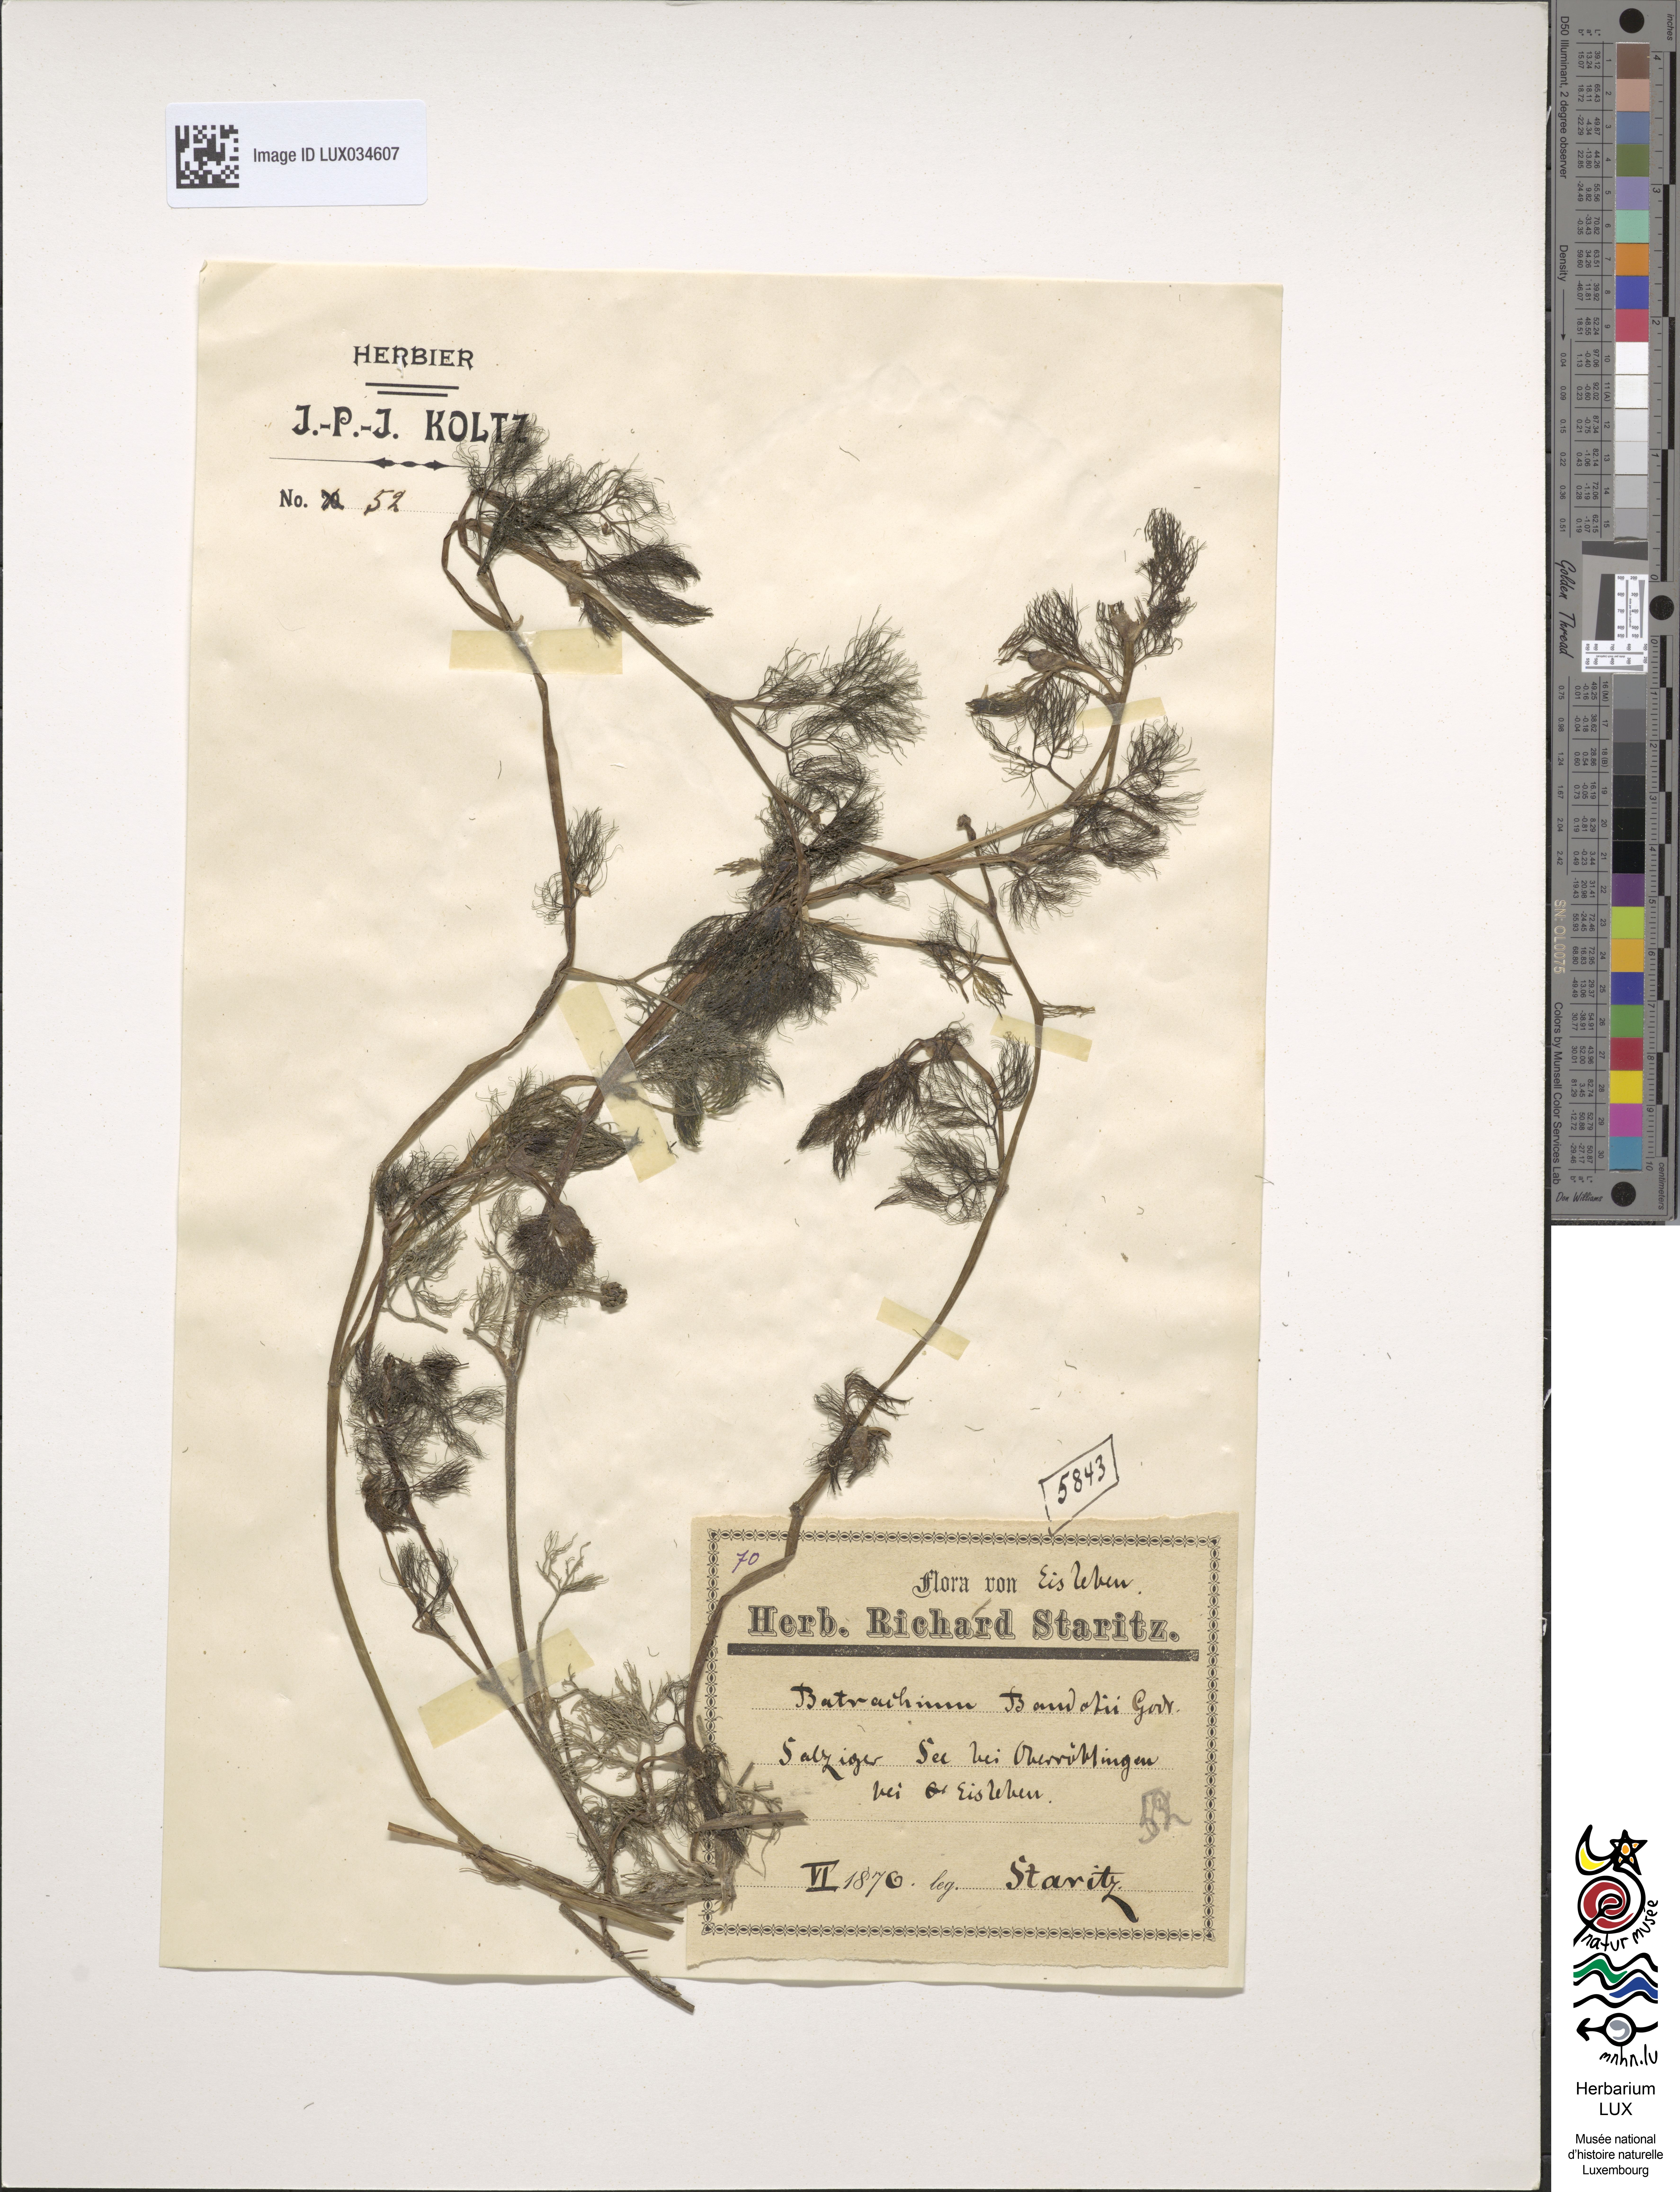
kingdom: Plantae
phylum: Tracheophyta
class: Magnoliopsida
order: Ranunculales
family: Ranunculaceae
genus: Ranunculus
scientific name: Ranunculus peltatus
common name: Pond water-crowfoot
